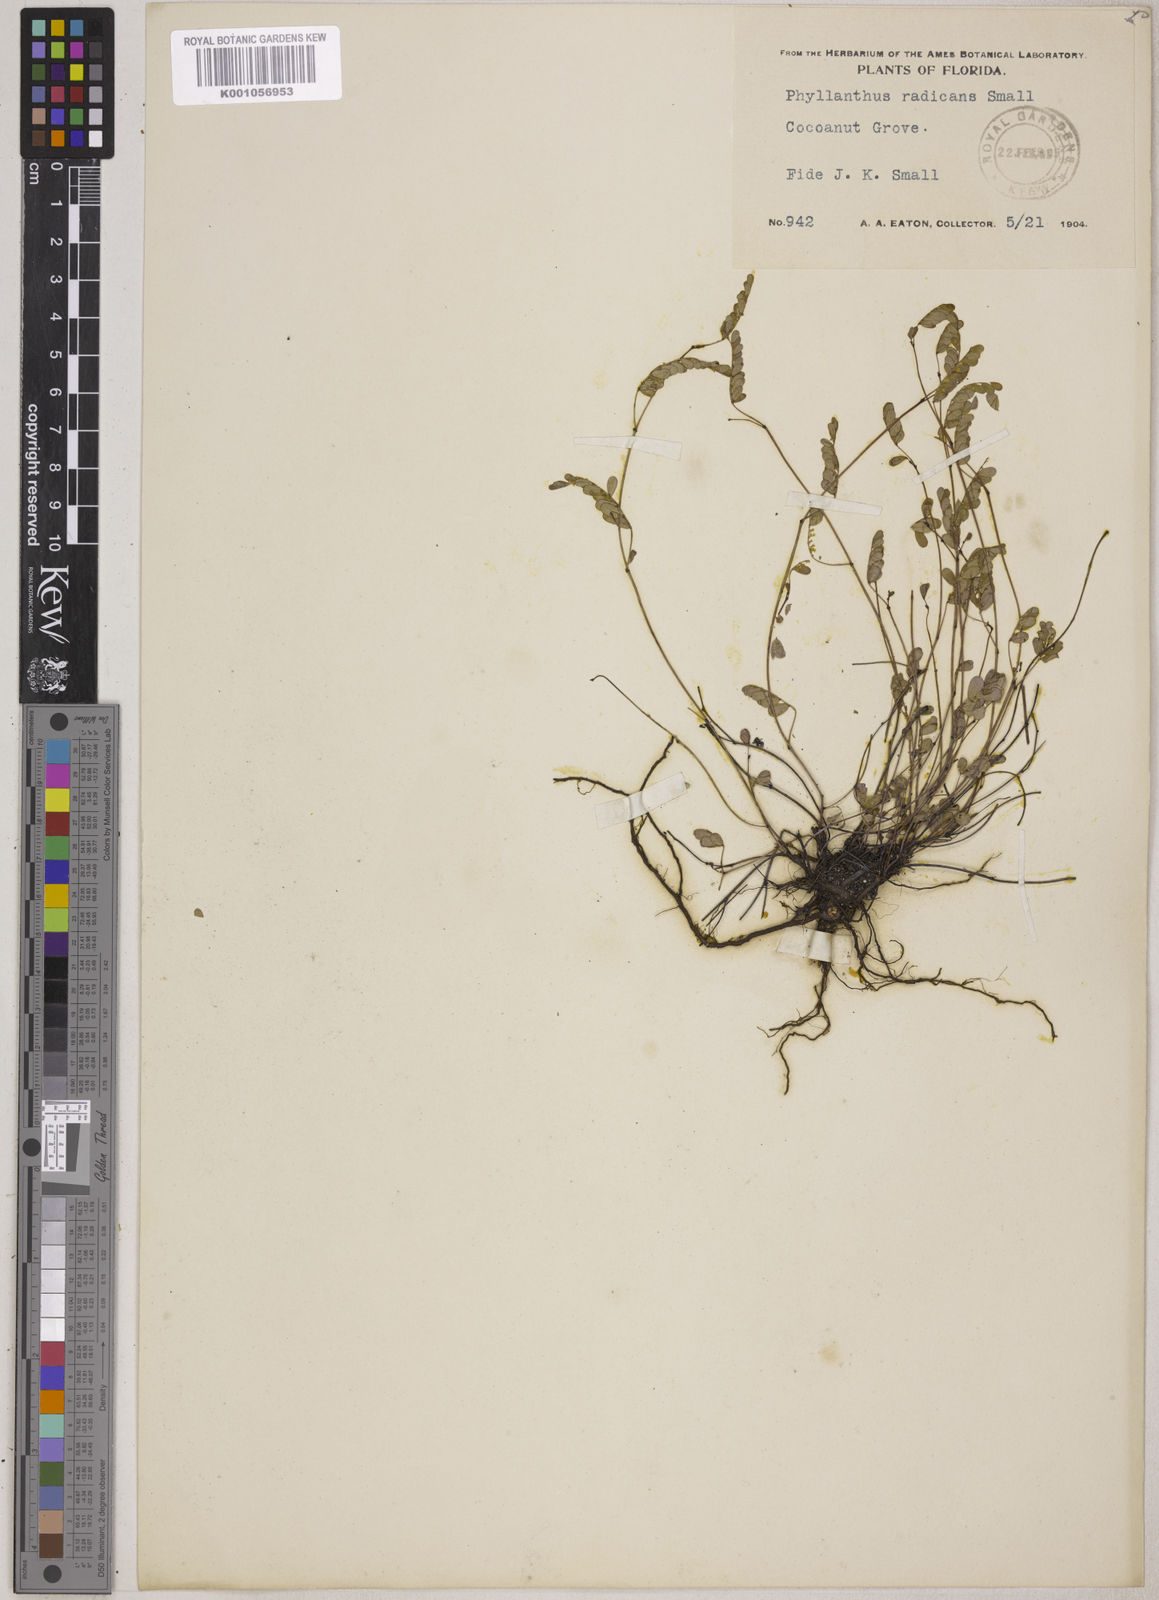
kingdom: Plantae
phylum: Tracheophyta
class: Magnoliopsida
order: Malpighiales
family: Phyllanthaceae
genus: Phyllanthus
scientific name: Phyllanthus pentaphyllus
